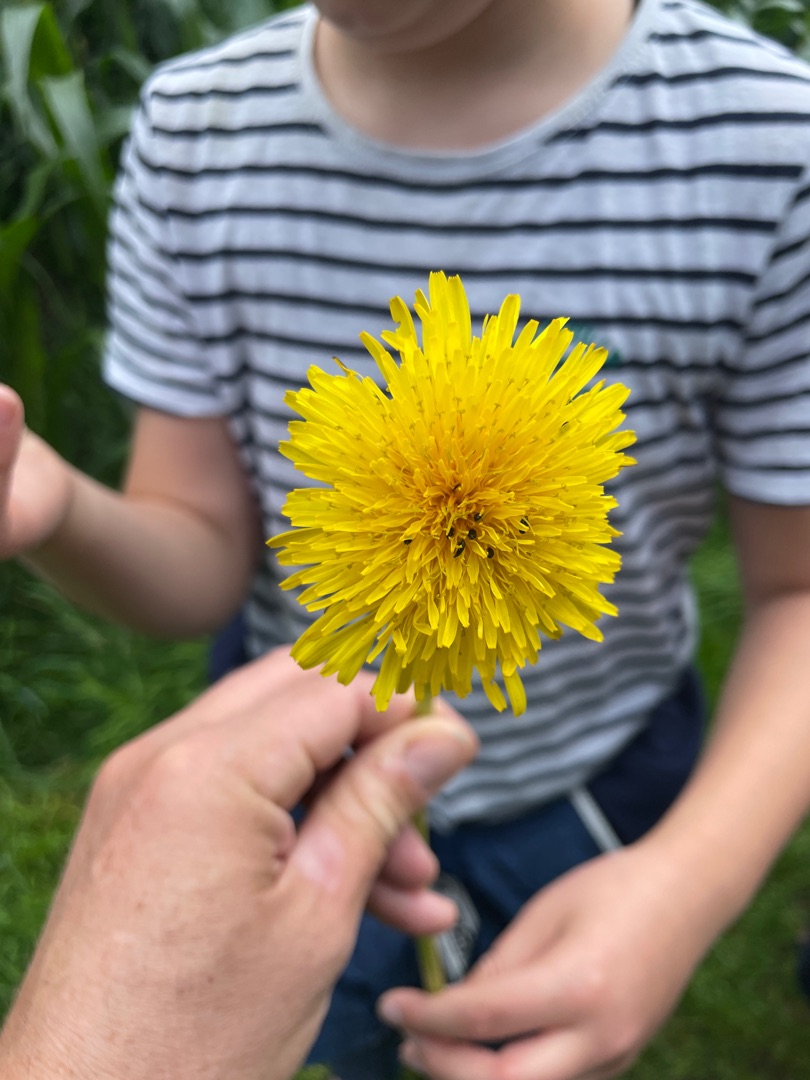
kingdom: Plantae
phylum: Tracheophyta
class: Magnoliopsida
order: Asterales
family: Asteraceae
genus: Taraxacum
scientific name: Taraxacum
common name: Mælkebøtteslægten
